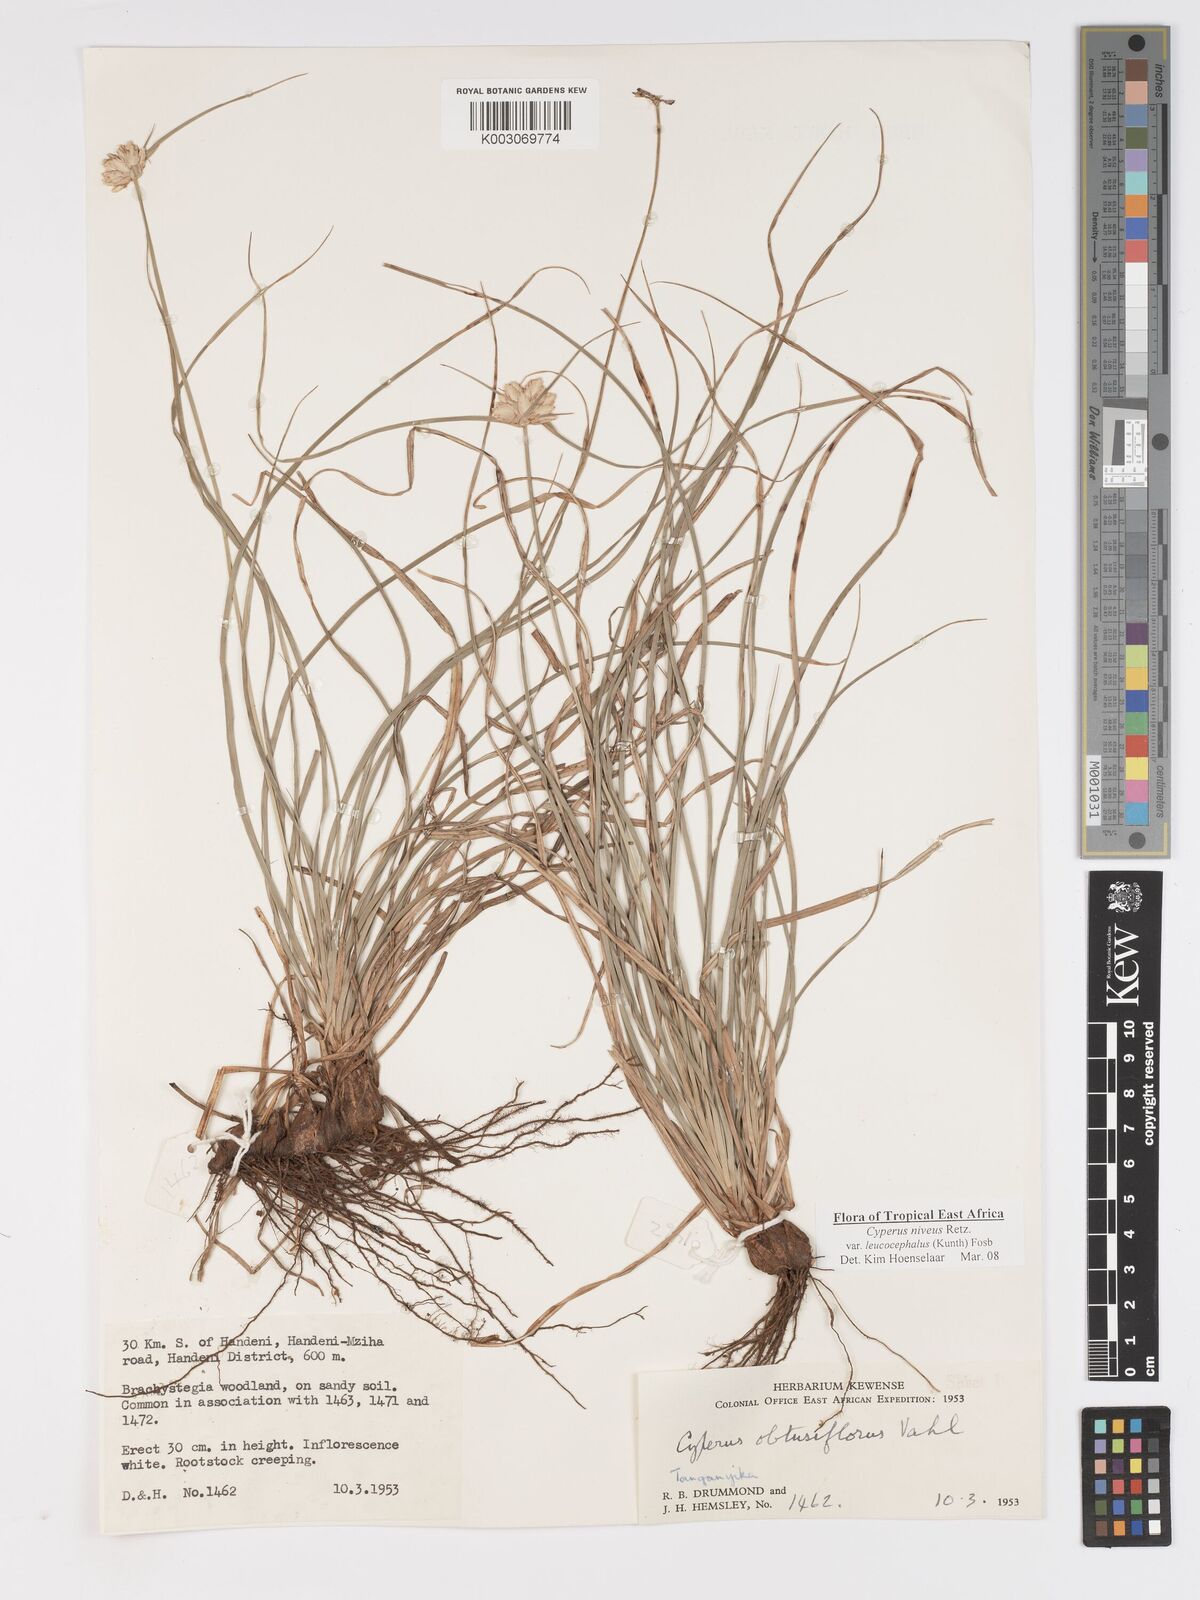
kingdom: Plantae
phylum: Tracheophyta
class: Liliopsida
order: Poales
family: Cyperaceae
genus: Cyperus
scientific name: Cyperus niveus
